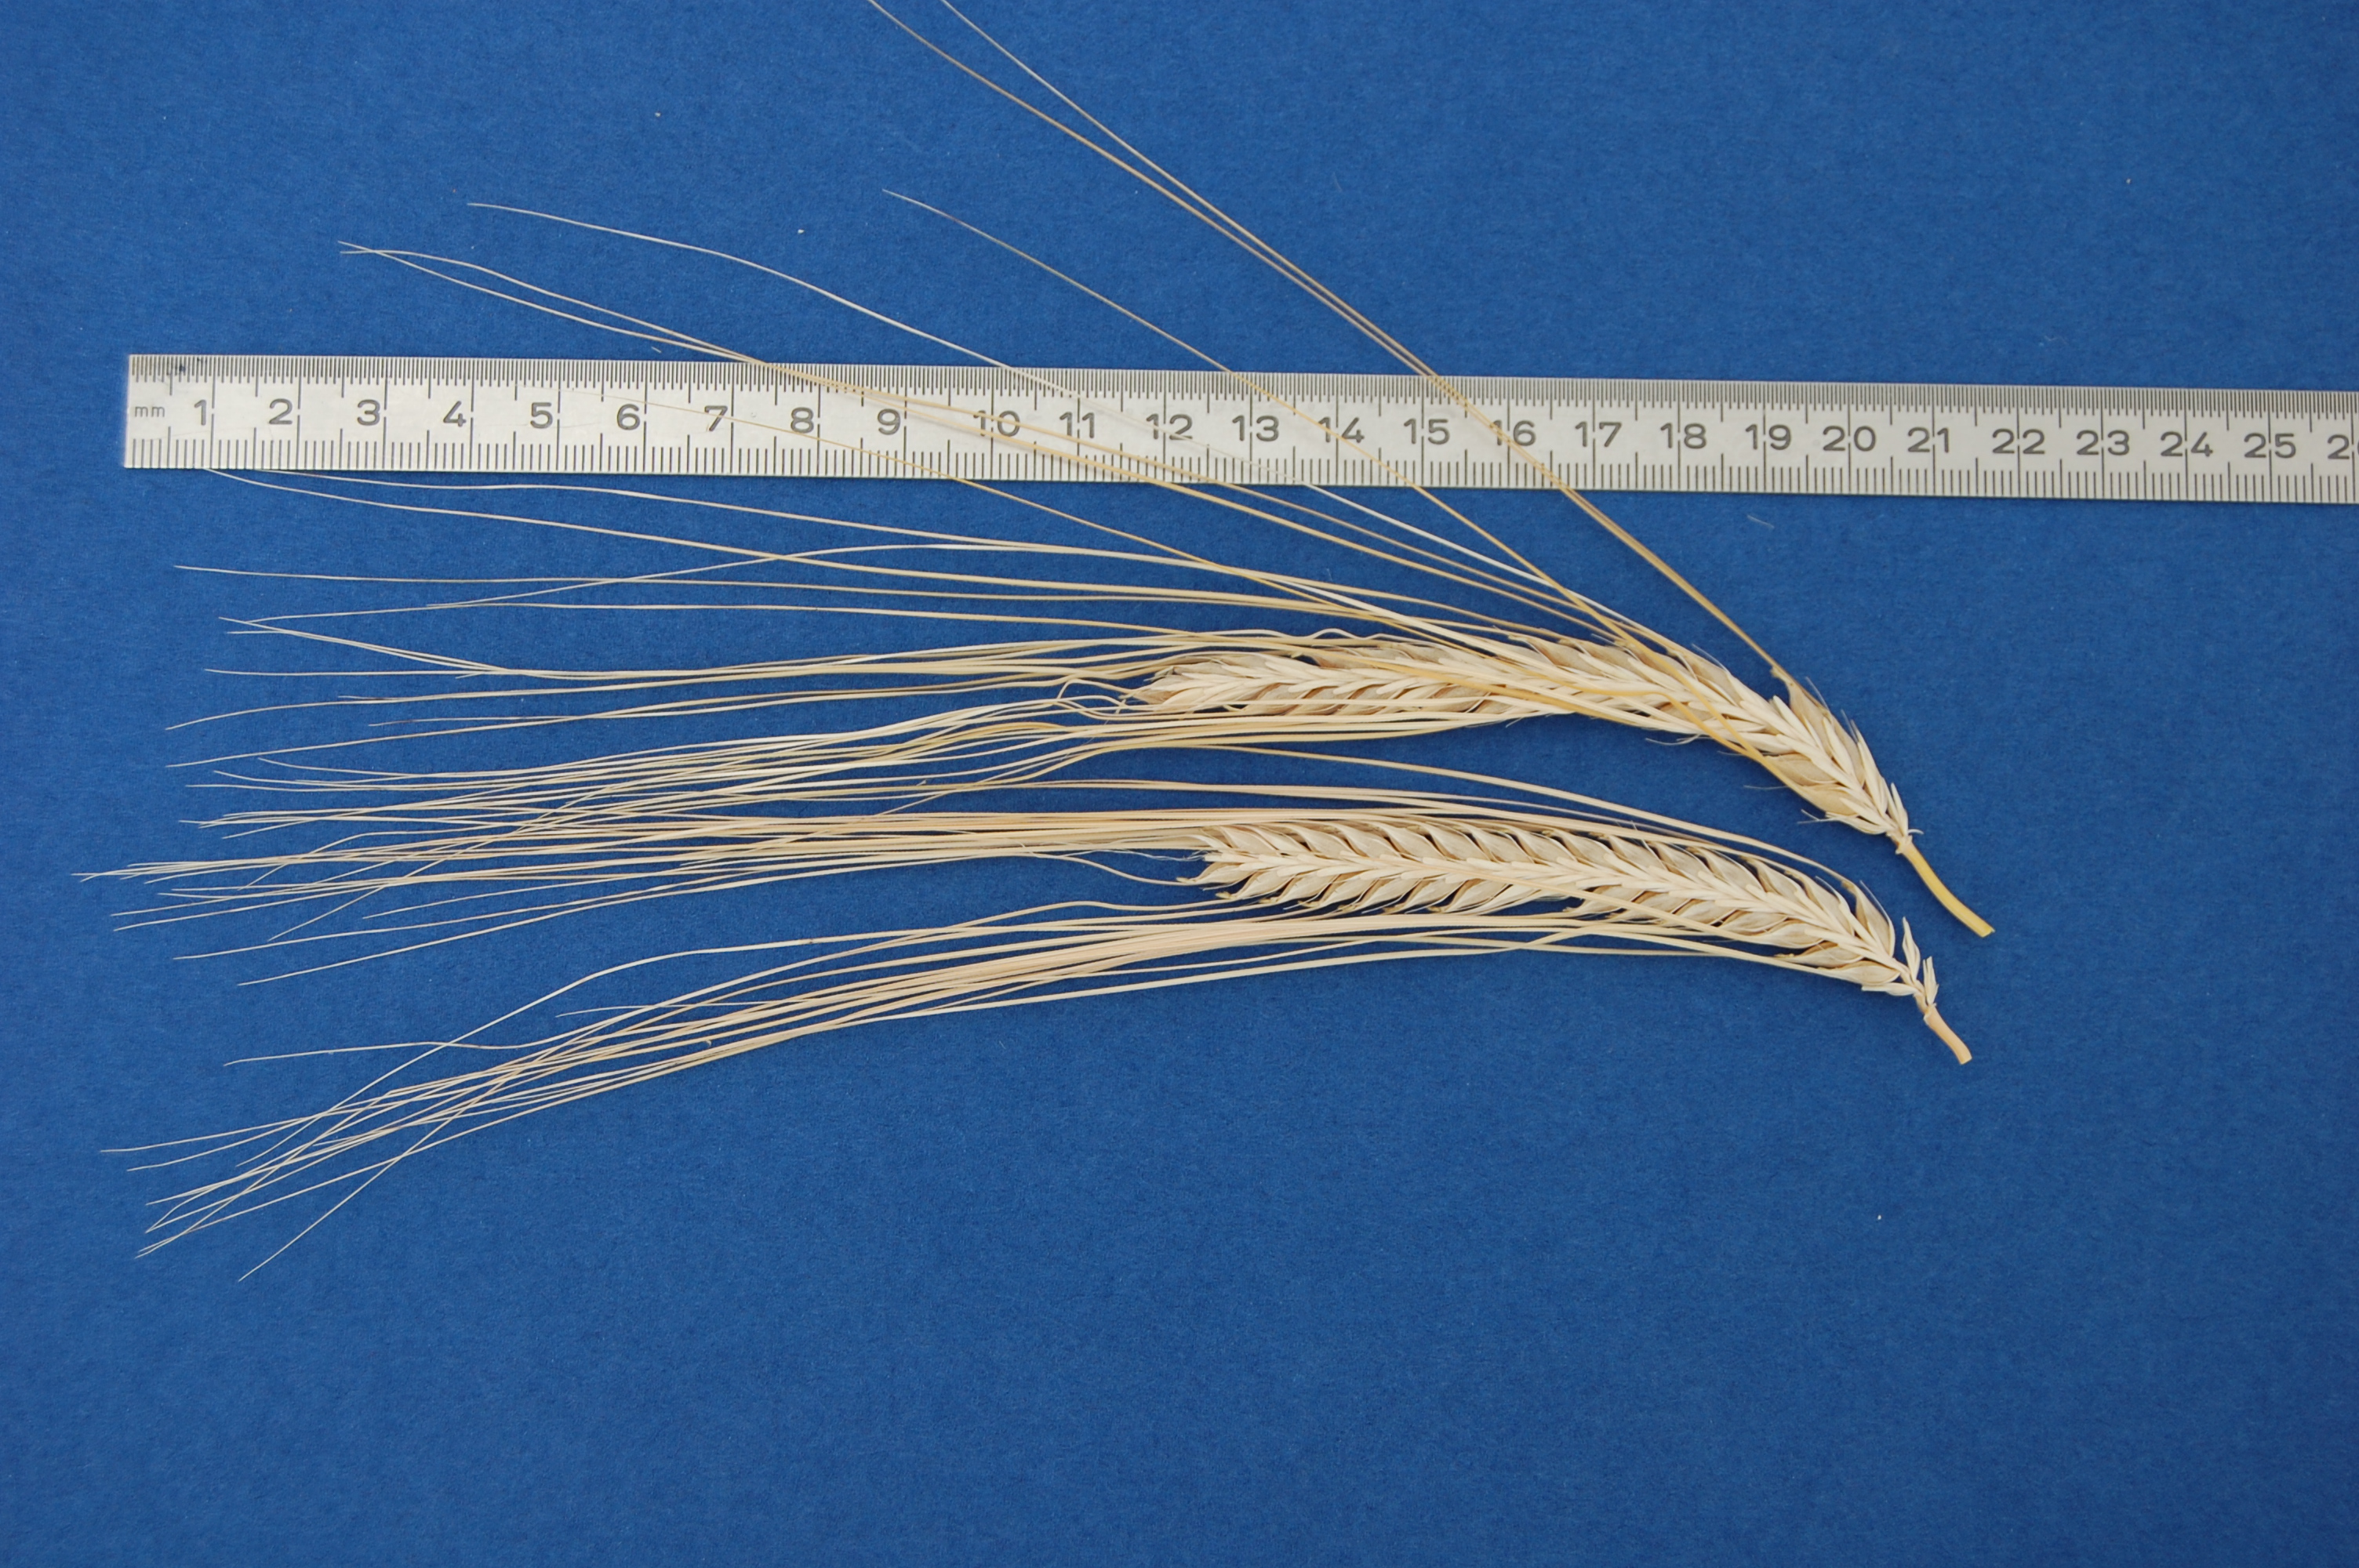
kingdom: Plantae
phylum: Tracheophyta
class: Liliopsida
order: Poales
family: Poaceae
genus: Hordeum
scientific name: Hordeum vulgare
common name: Common barley
